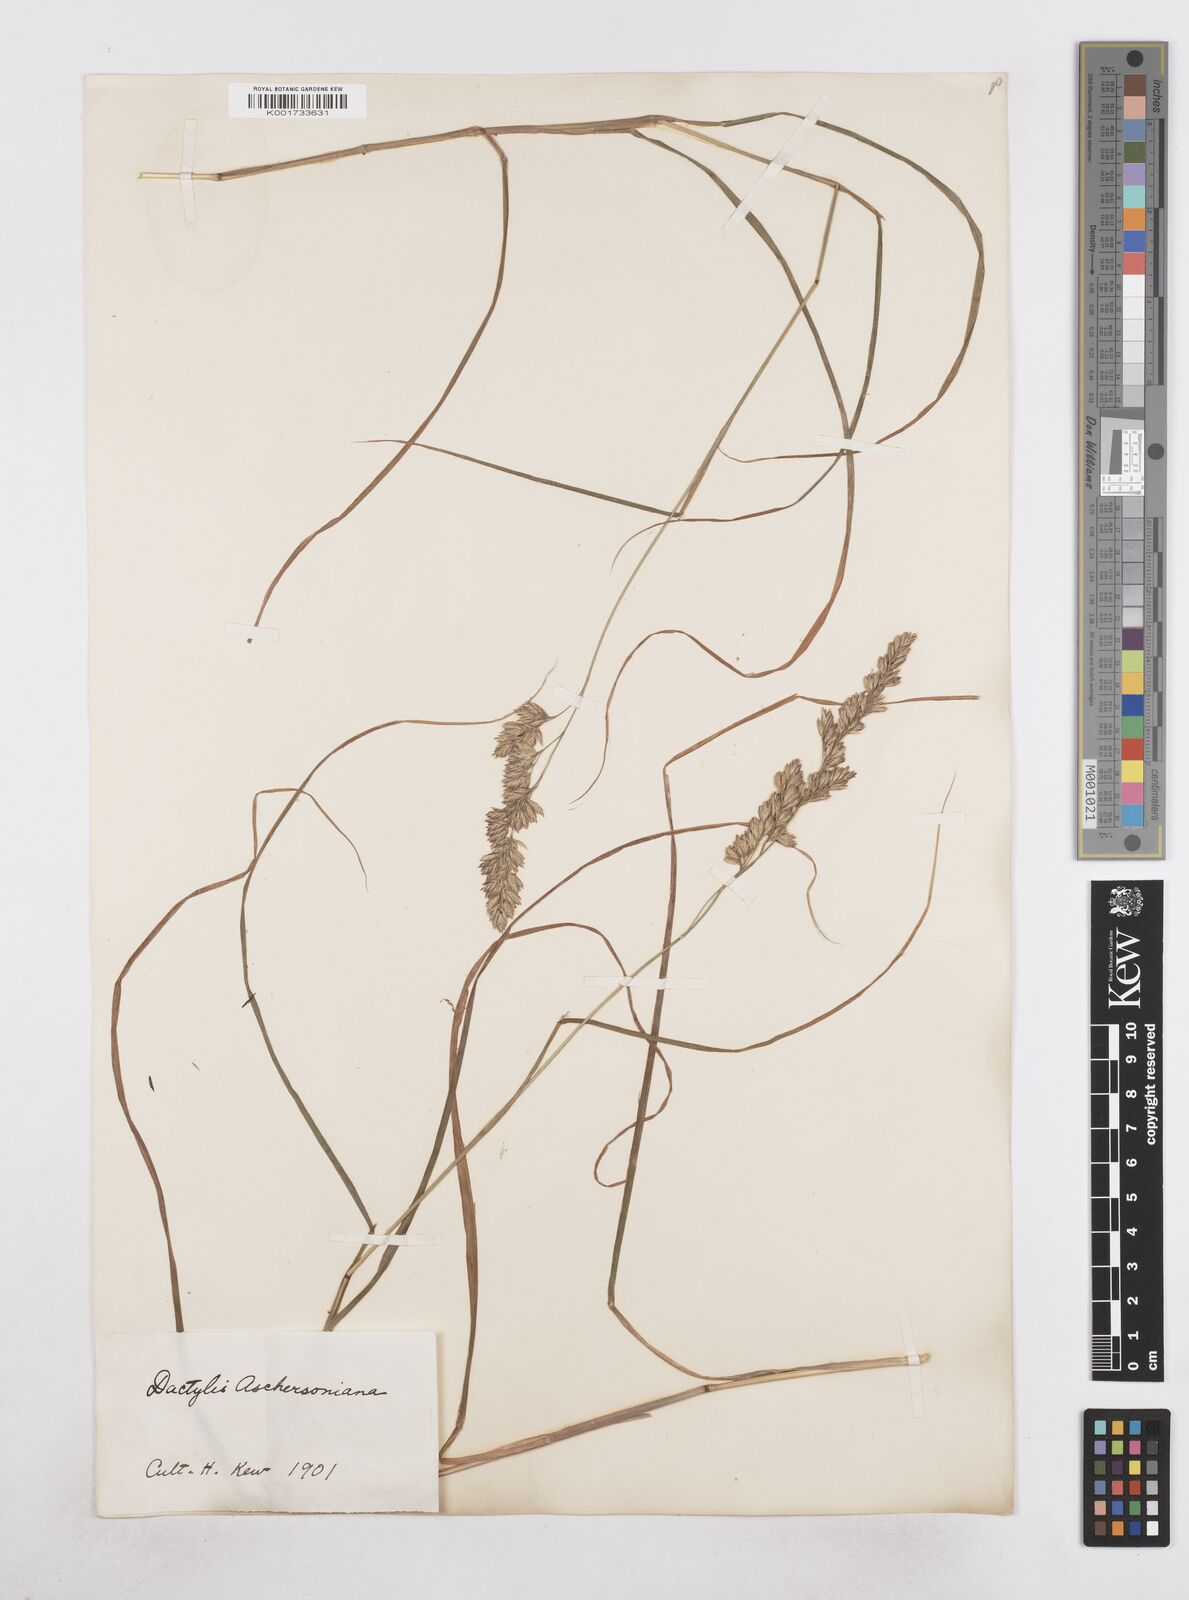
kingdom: Plantae
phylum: Tracheophyta
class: Liliopsida
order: Poales
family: Poaceae
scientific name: Poaceae
